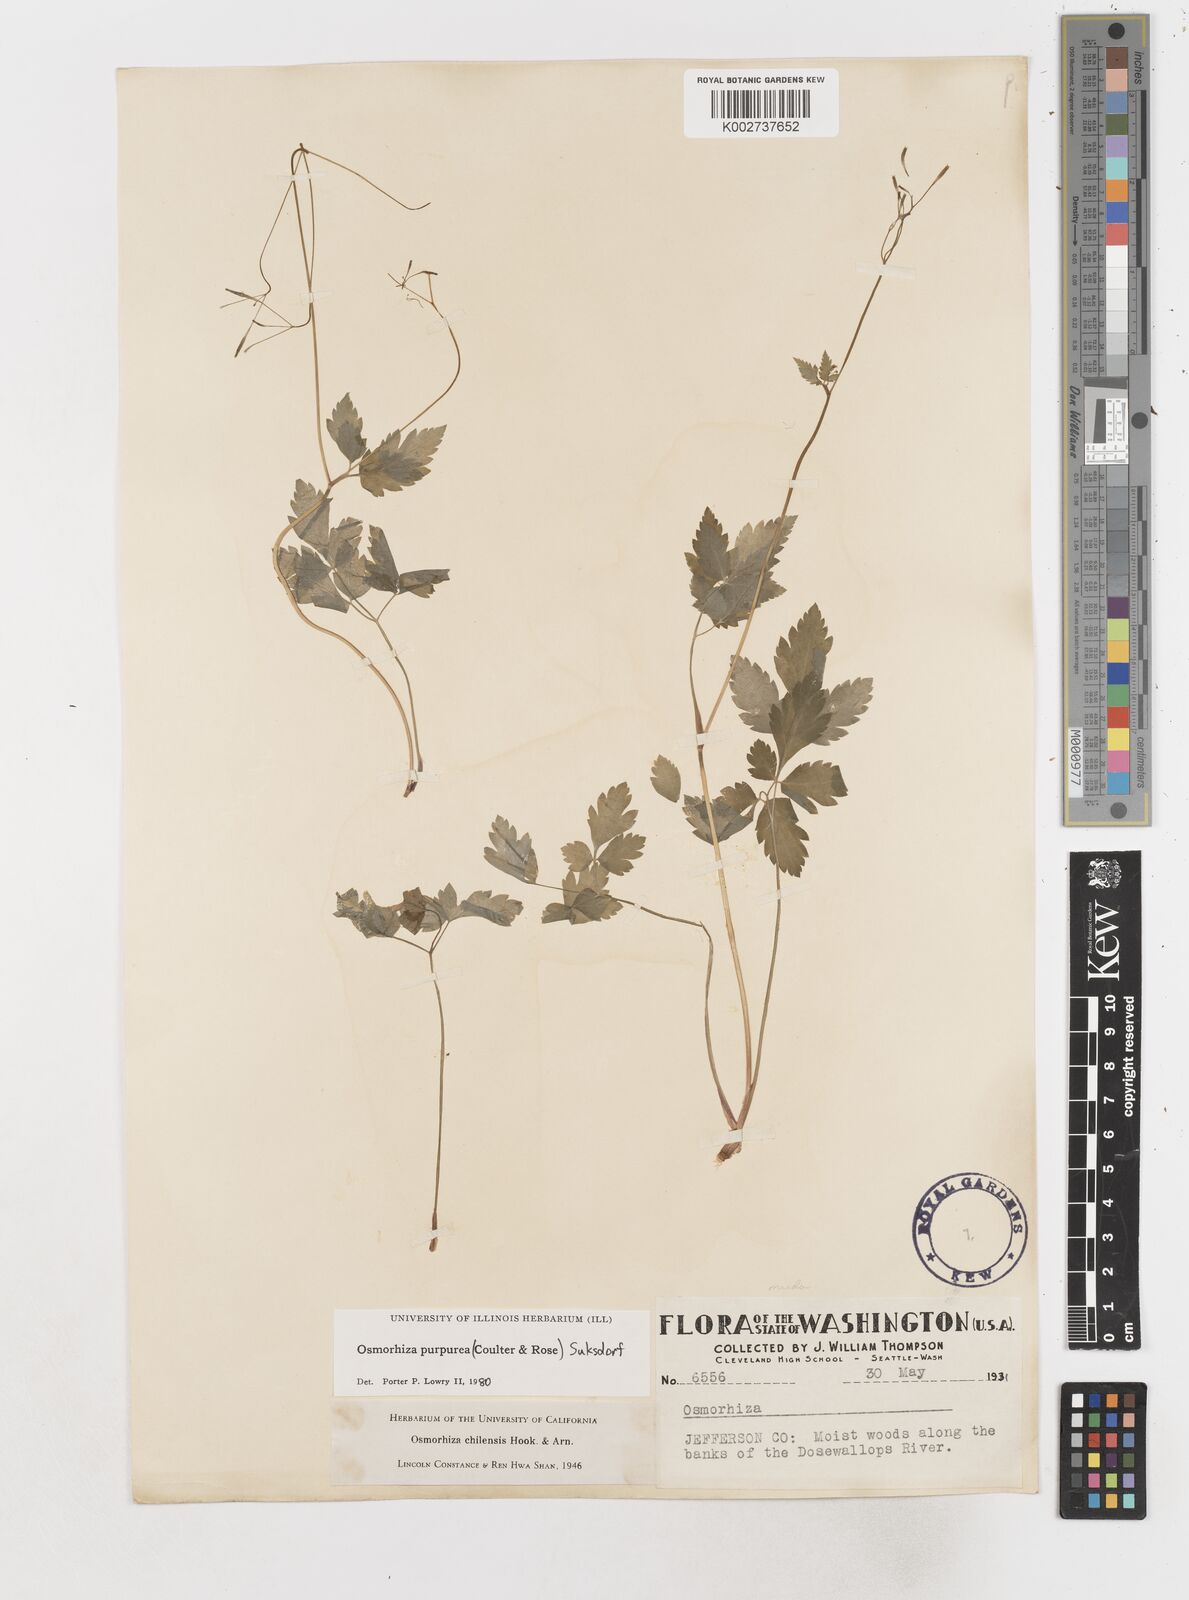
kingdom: Plantae
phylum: Tracheophyta
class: Magnoliopsida
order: Apiales
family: Apiaceae
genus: Osmorhiza
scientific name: Osmorhiza purpurea
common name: Purple sweet cicely
